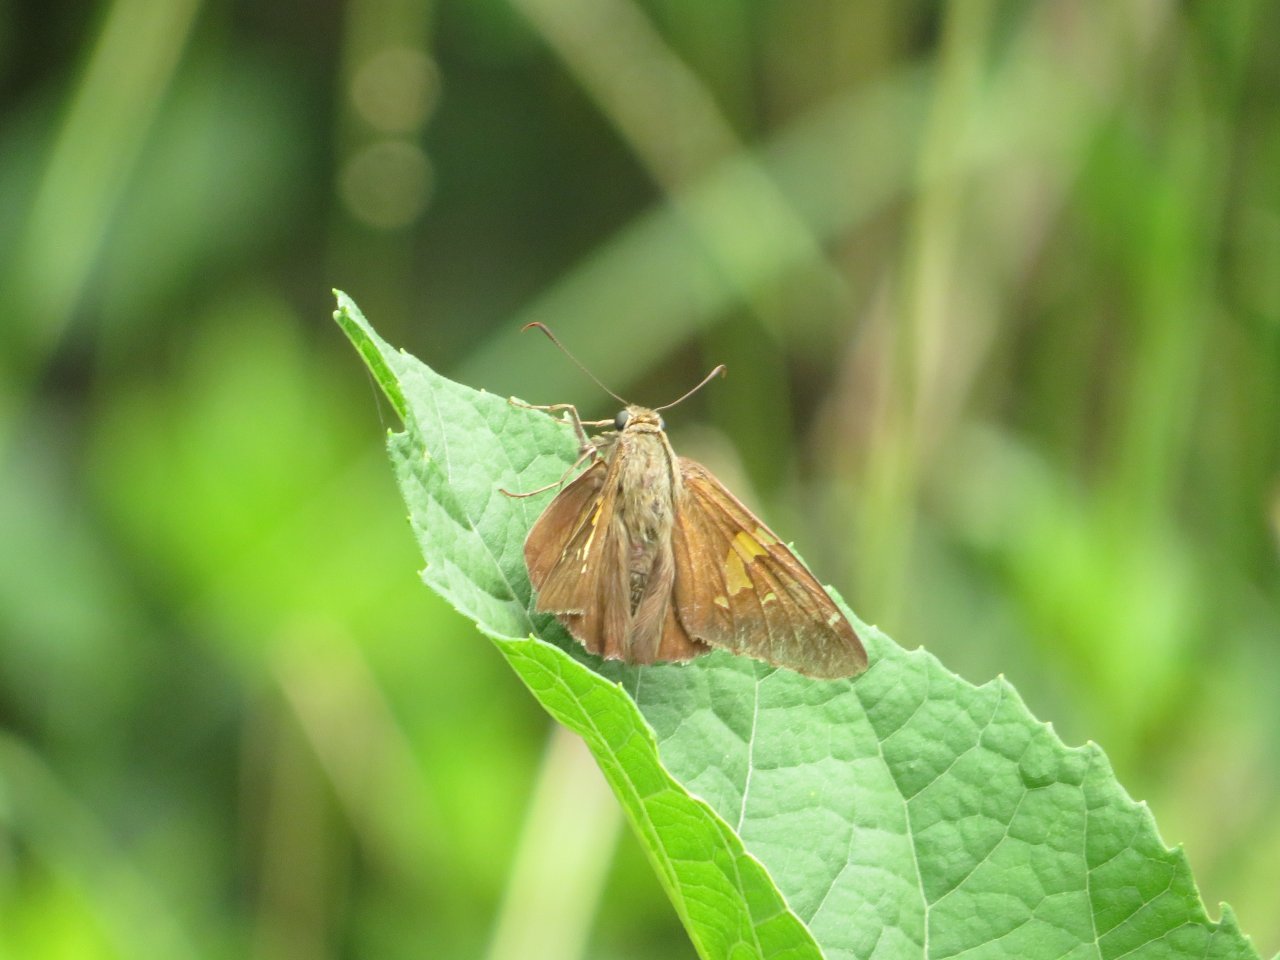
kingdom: Animalia
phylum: Arthropoda
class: Insecta
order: Lepidoptera
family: Hesperiidae
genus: Epargyreus
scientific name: Epargyreus clarus
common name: Silver-spotted Skipper
